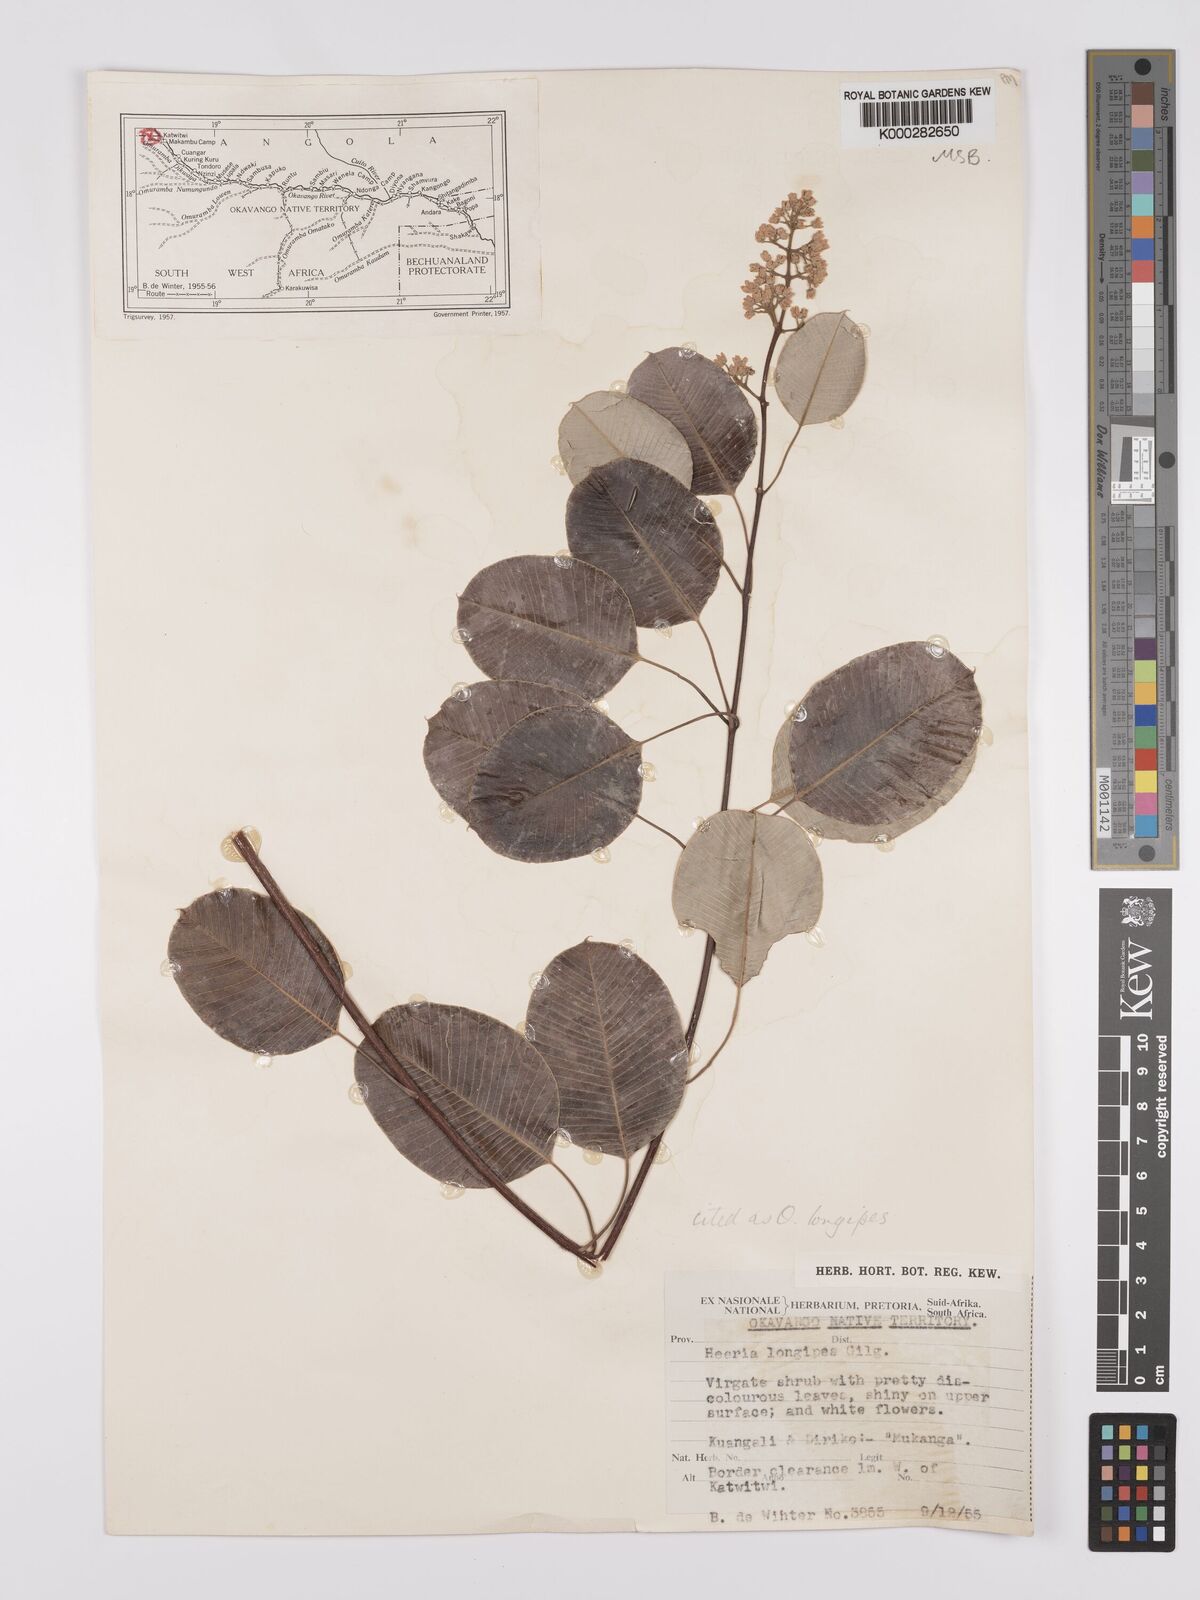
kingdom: Plantae
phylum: Tracheophyta
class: Magnoliopsida
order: Sapindales
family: Anacardiaceae
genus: Ozoroa
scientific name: Ozoroa longipes
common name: Round-leaved resin tree
